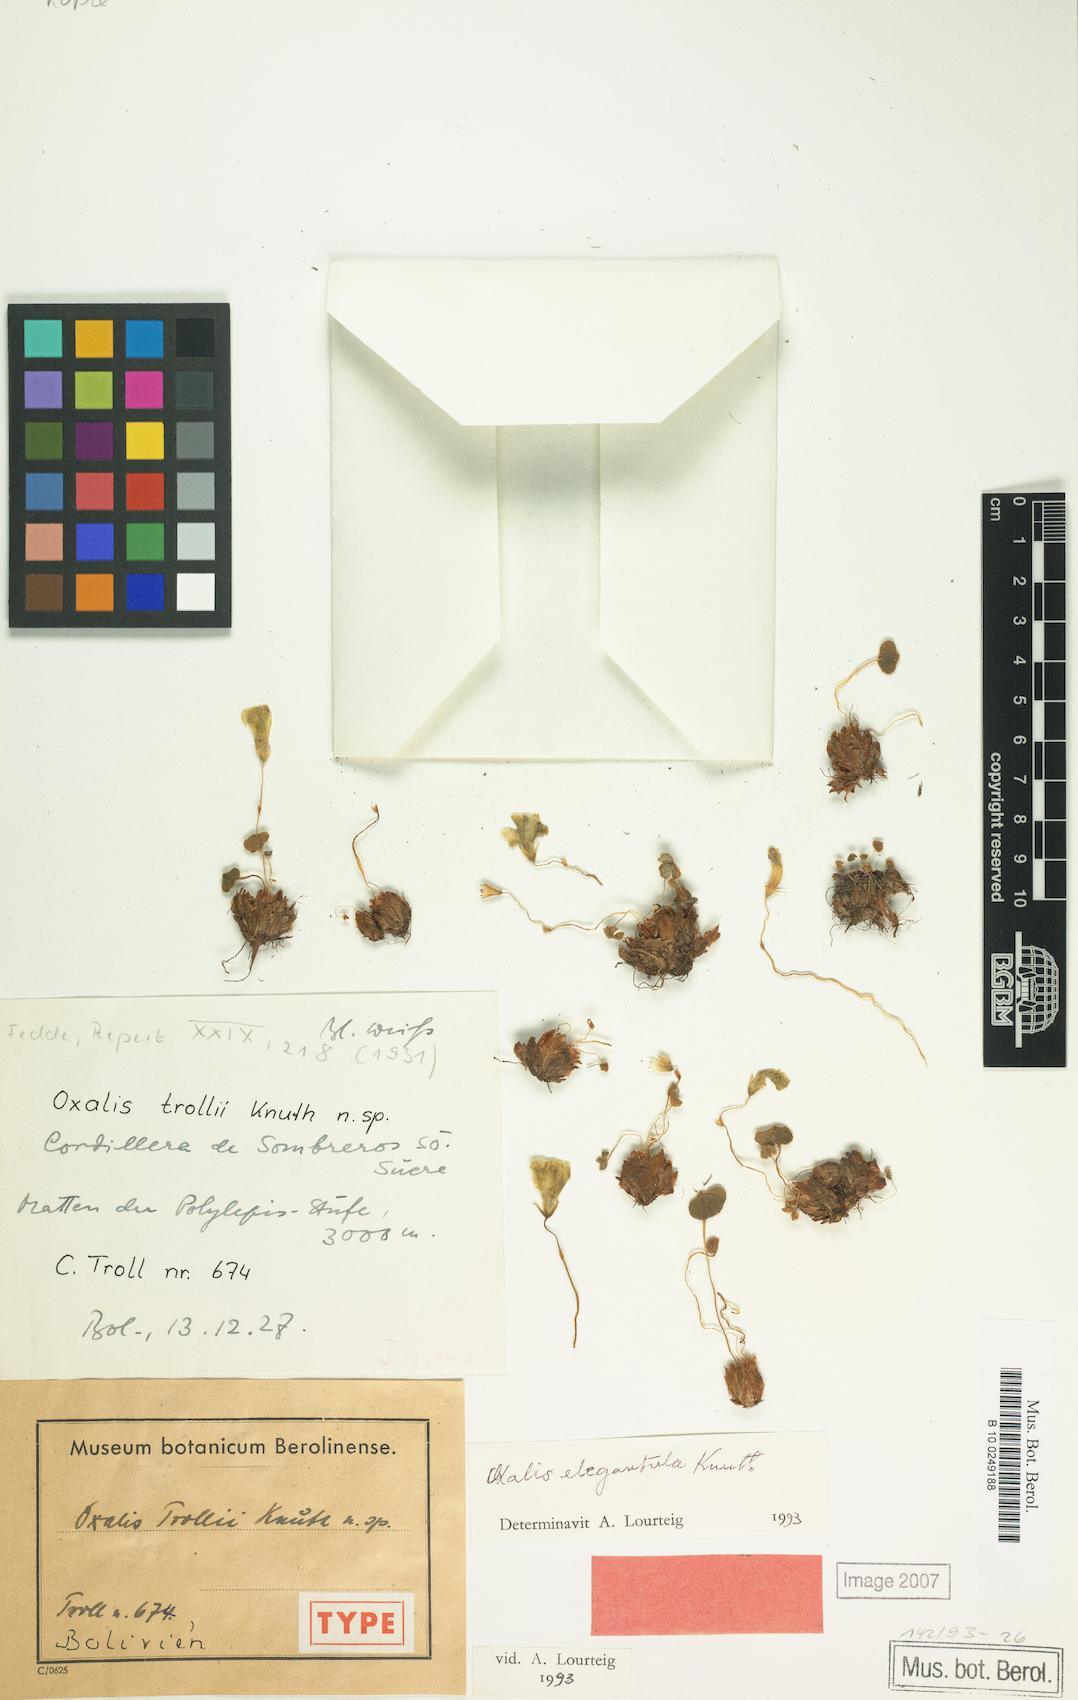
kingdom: Plantae
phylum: Tracheophyta
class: Magnoliopsida
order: Oxalidales
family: Oxalidaceae
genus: Oxalis
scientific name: Oxalis trollii
